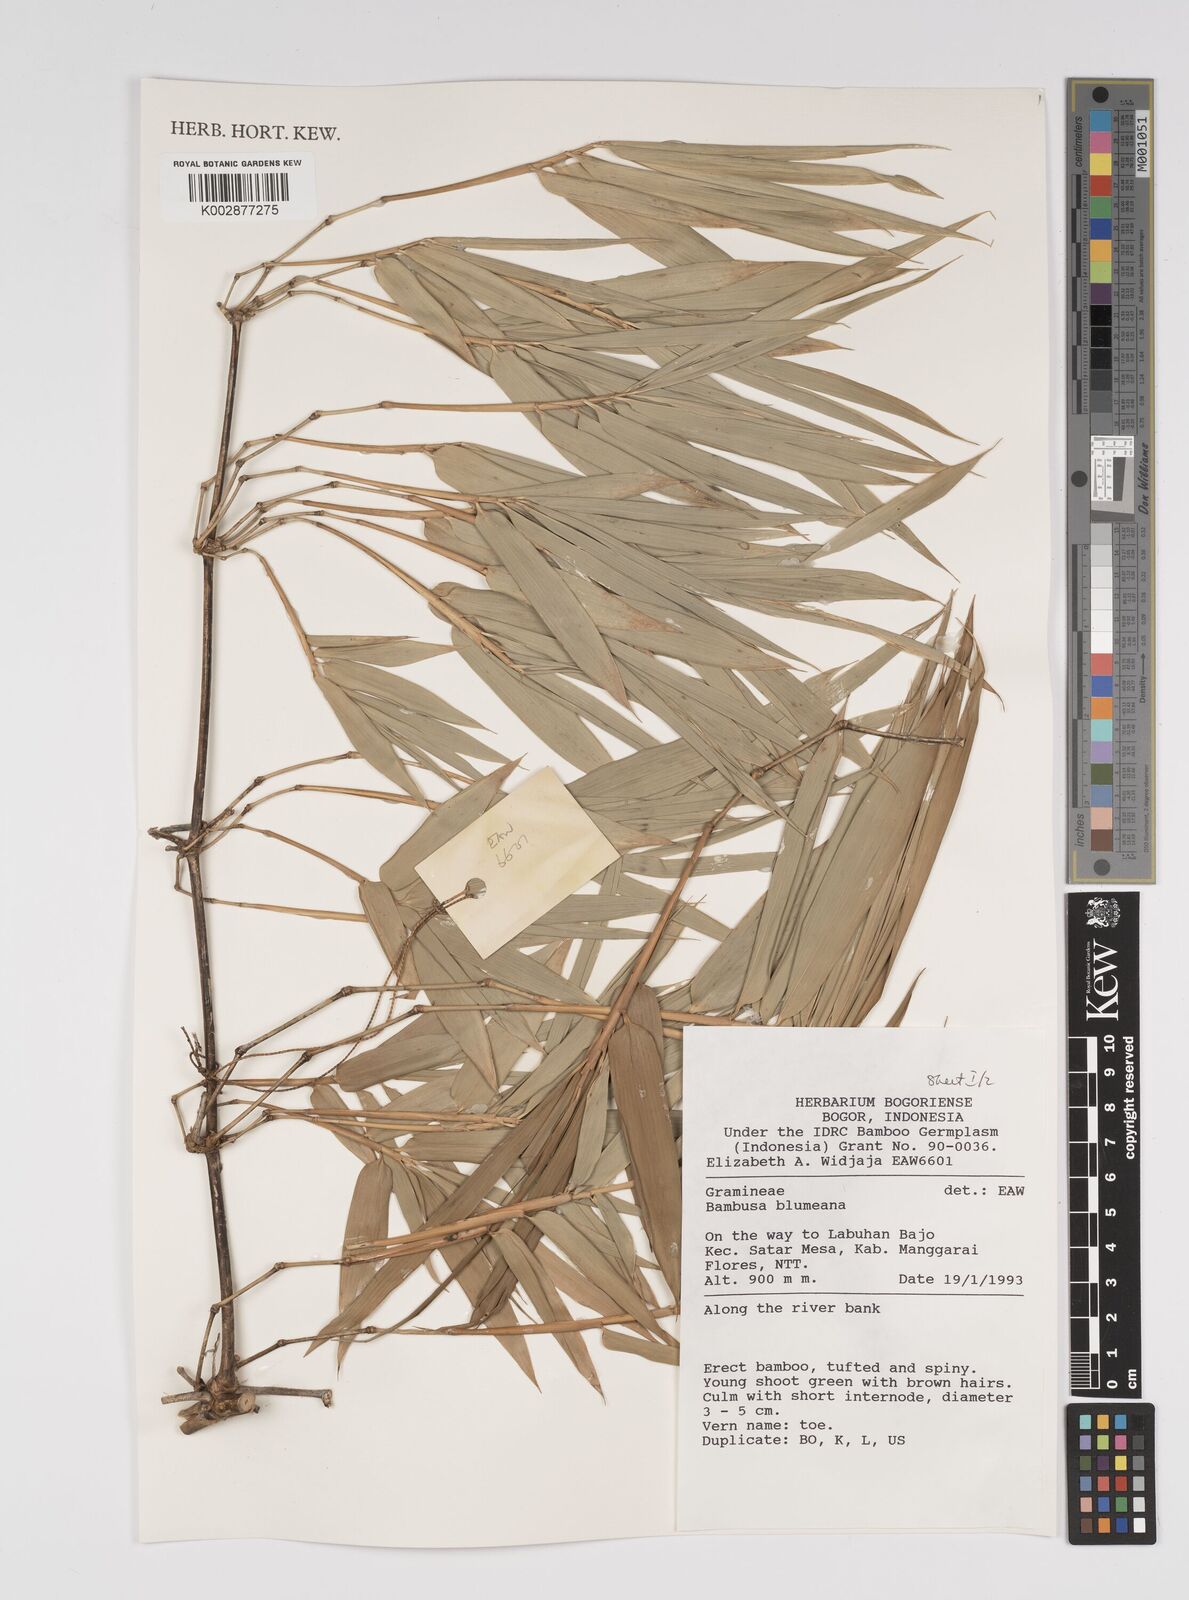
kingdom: Plantae
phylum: Tracheophyta
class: Liliopsida
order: Poales
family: Poaceae
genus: Bambusa
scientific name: Bambusa spinosa
